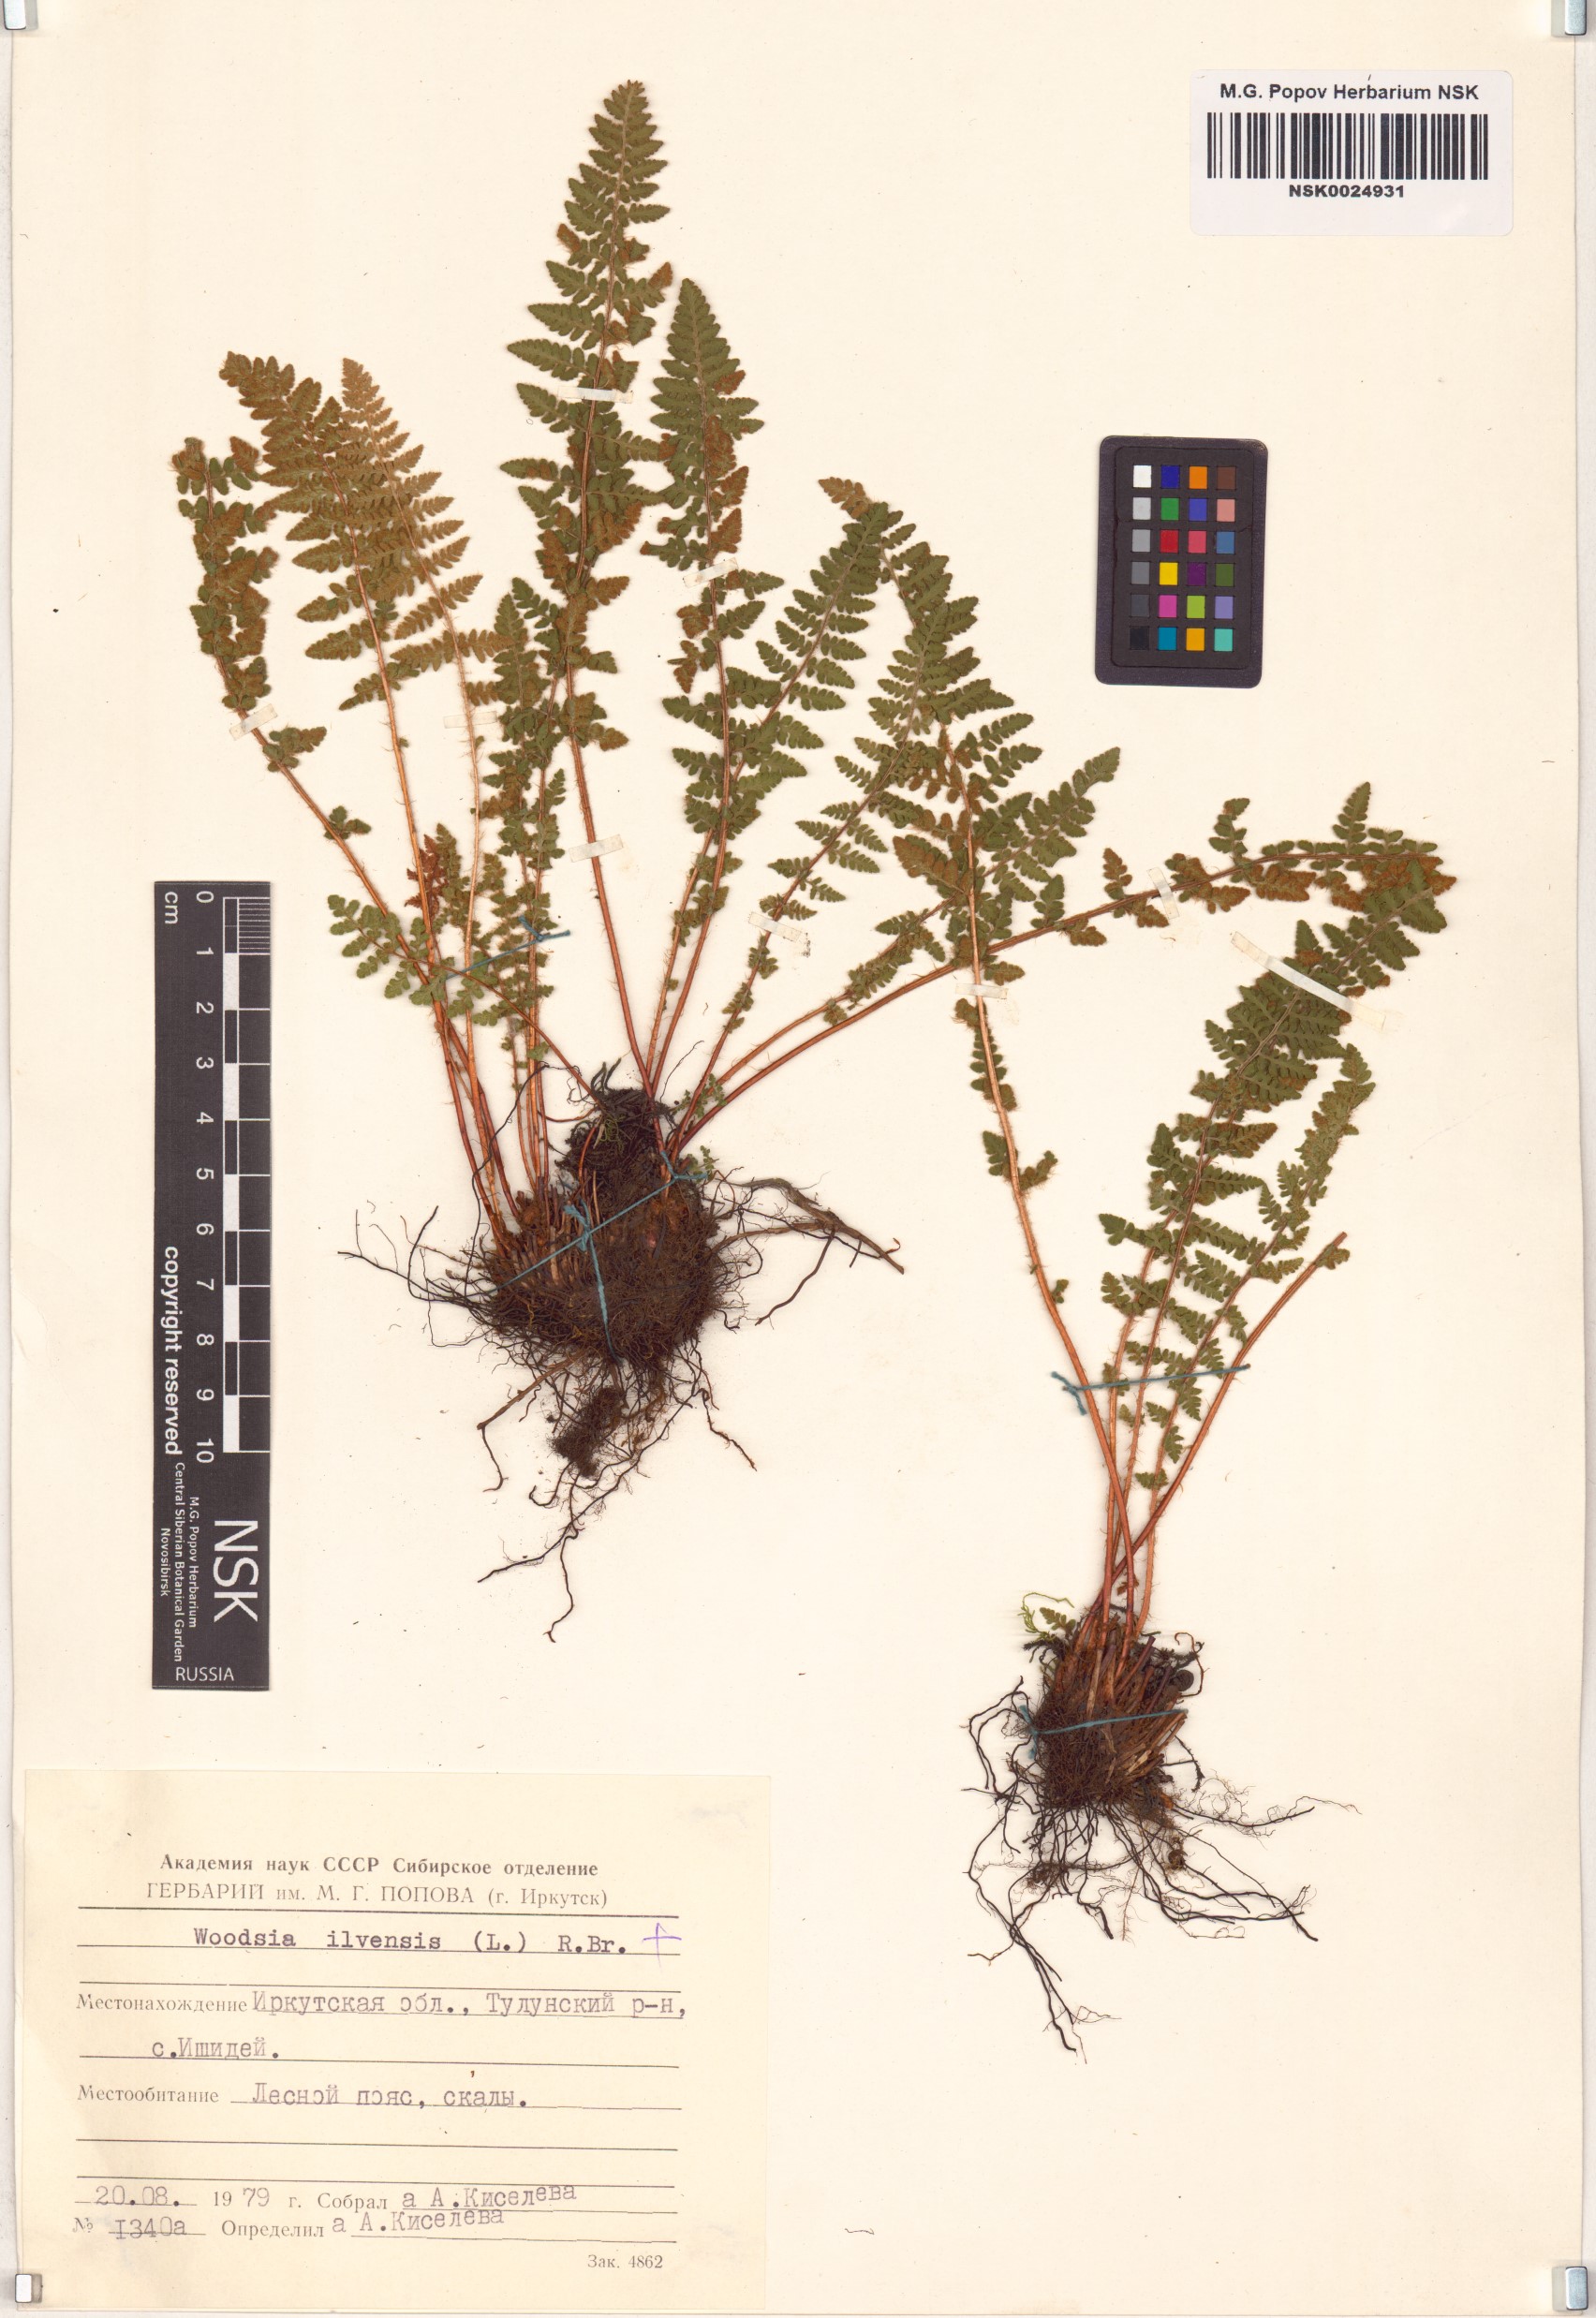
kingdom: Plantae
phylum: Tracheophyta
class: Polypodiopsida
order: Polypodiales
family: Woodsiaceae
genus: Woodsia
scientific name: Woodsia ilvensis
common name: Fragrant woodsia
